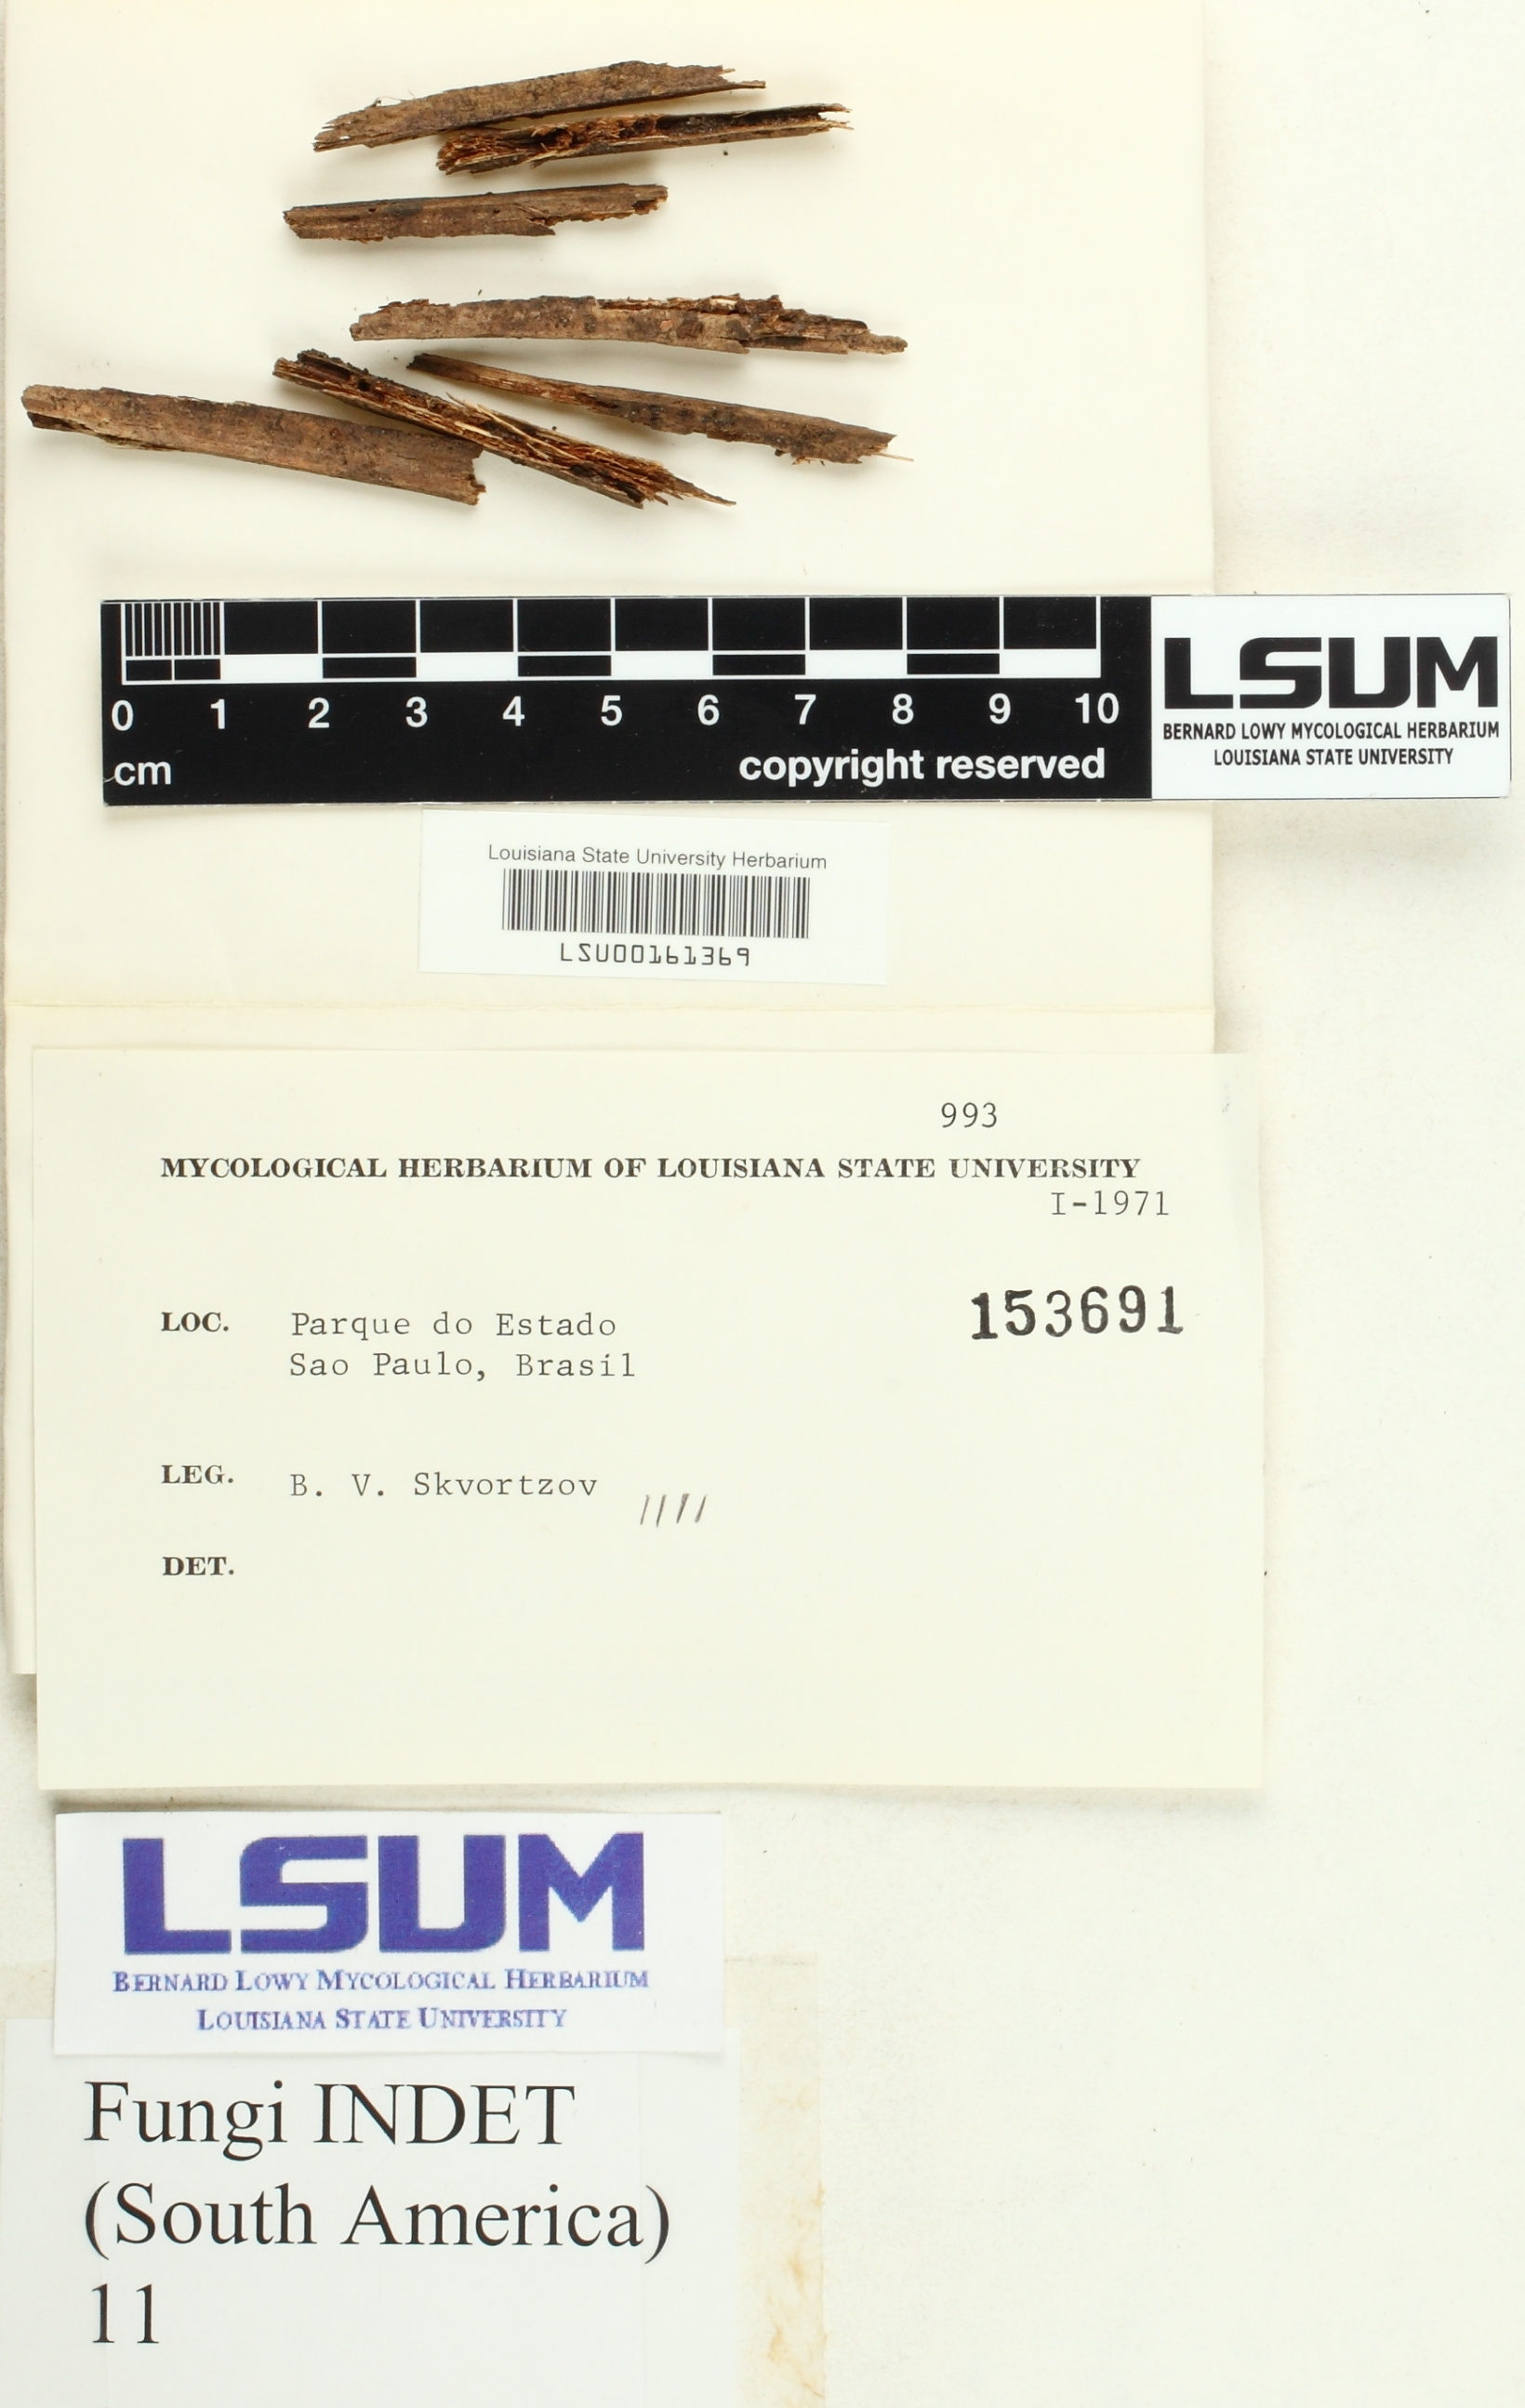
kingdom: Fungi
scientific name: Fungi
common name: Fungi
